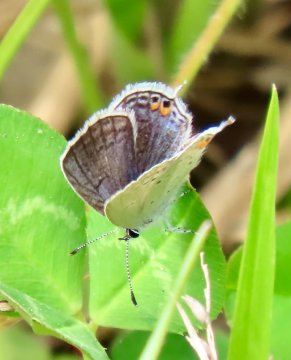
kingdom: Animalia
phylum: Arthropoda
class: Insecta
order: Lepidoptera
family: Lycaenidae
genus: Elkalyce
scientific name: Elkalyce comyntas
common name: Eastern Tailed-Blue
